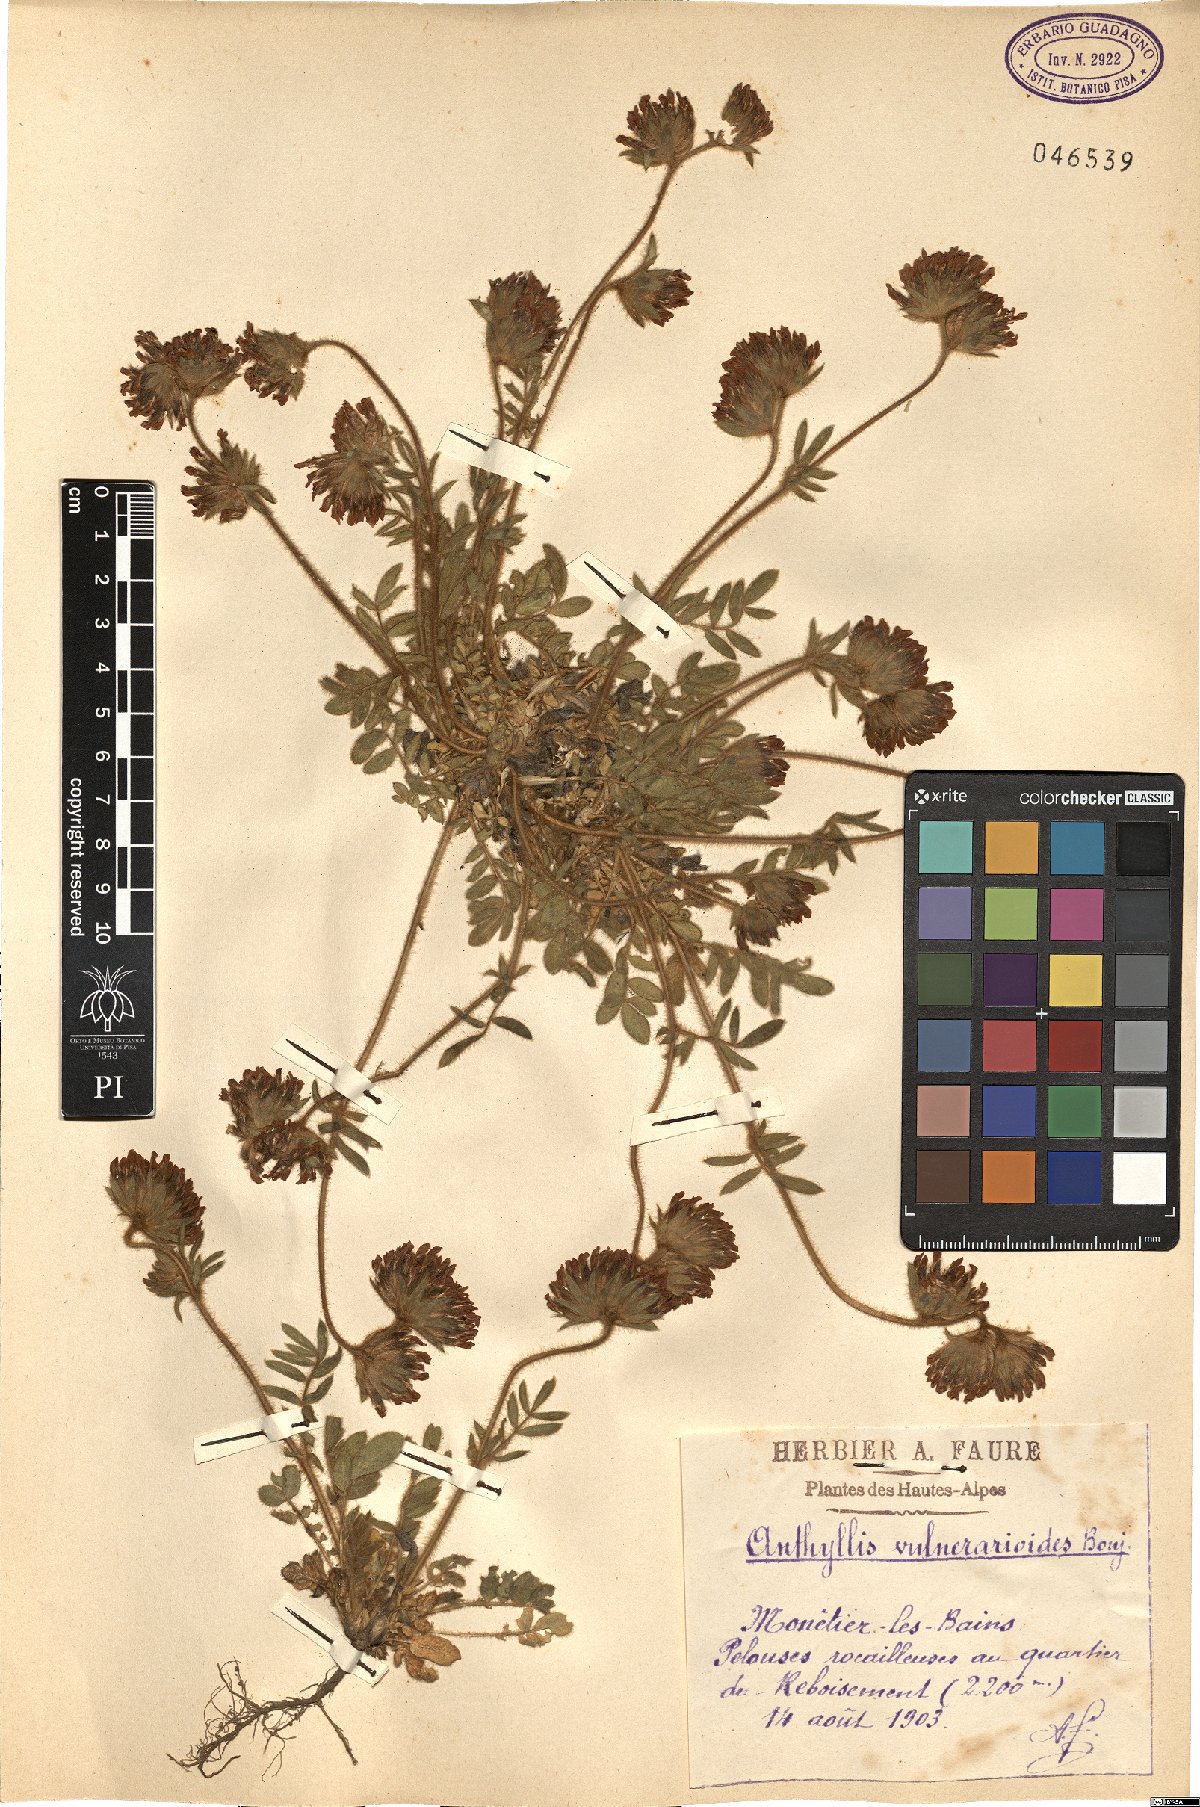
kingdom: Plantae
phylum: Tracheophyta
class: Magnoliopsida
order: Fabales
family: Fabaceae
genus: Anthyllis
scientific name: Anthyllis vulneraria
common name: Kidney vetch
